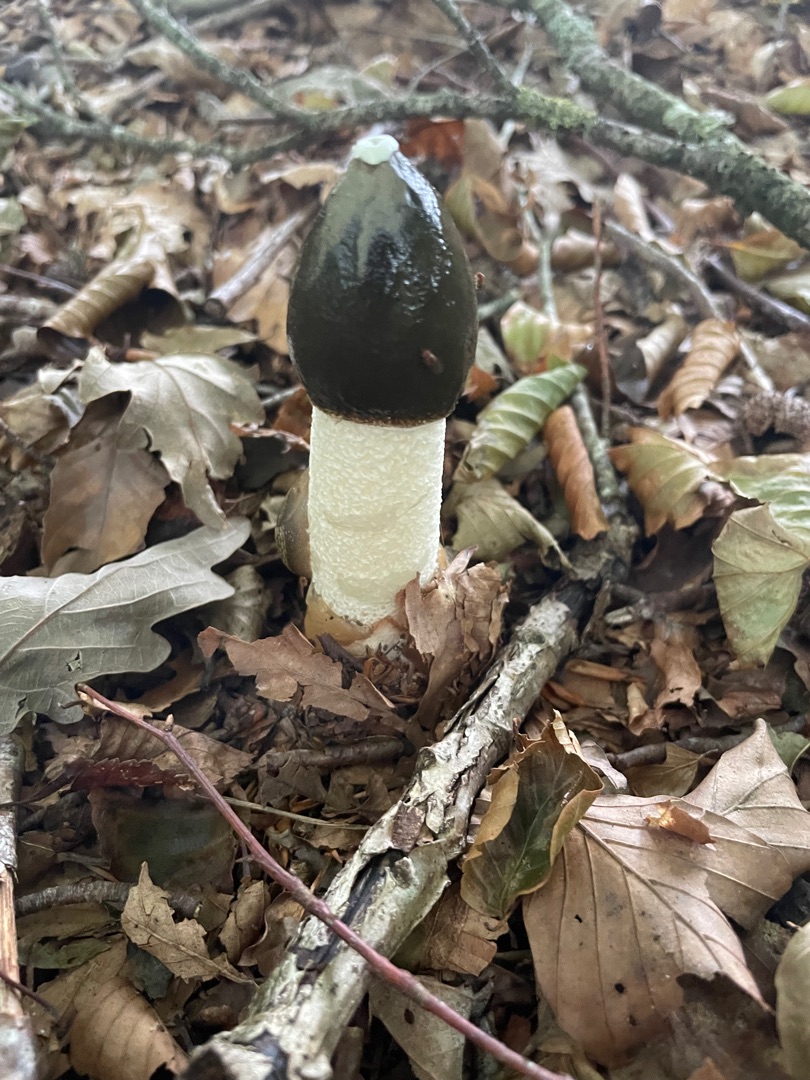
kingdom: Fungi
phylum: Basidiomycota
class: Agaricomycetes
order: Phallales
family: Phallaceae
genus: Phallus
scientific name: Phallus impudicus
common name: Almindelig stinksvamp
